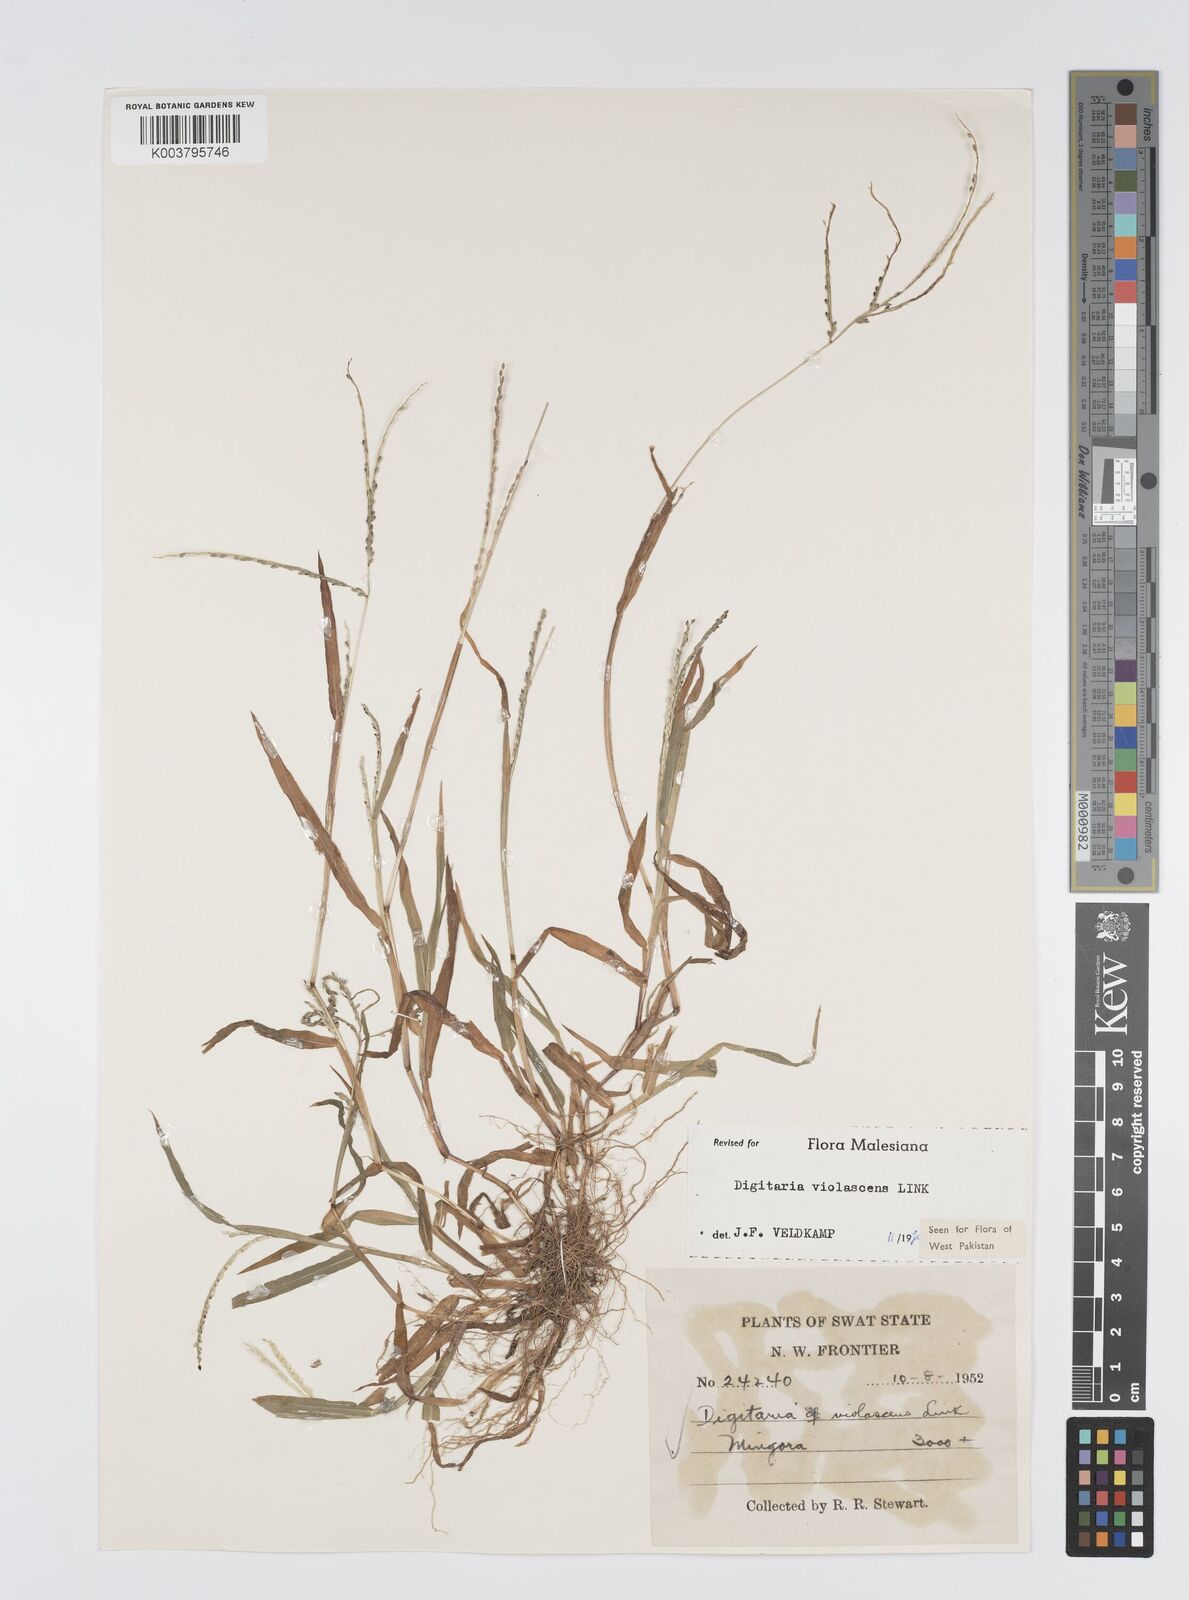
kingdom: Plantae
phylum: Tracheophyta
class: Liliopsida
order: Poales
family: Poaceae
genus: Digitaria
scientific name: Digitaria violascens
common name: Violet crabgrass
